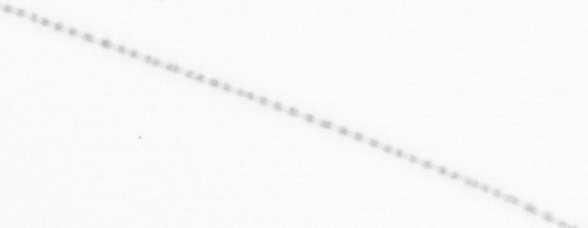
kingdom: Chromista
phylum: Ochrophyta
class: Bacillariophyceae
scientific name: Bacillariophyceae
